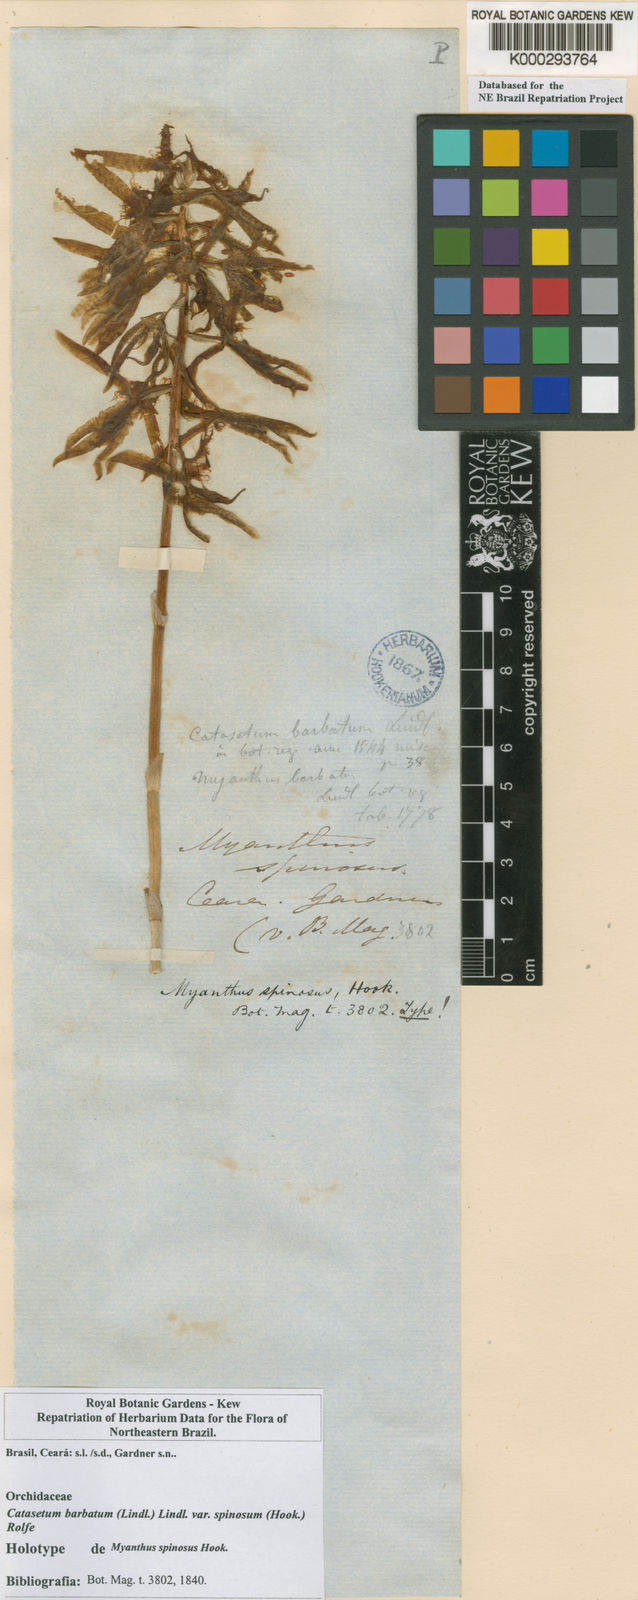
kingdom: Plantae
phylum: Tracheophyta
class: Liliopsida
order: Asparagales
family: Orchidaceae
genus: Catasetum
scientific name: Catasetum barbatum
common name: Bearded catasetum
